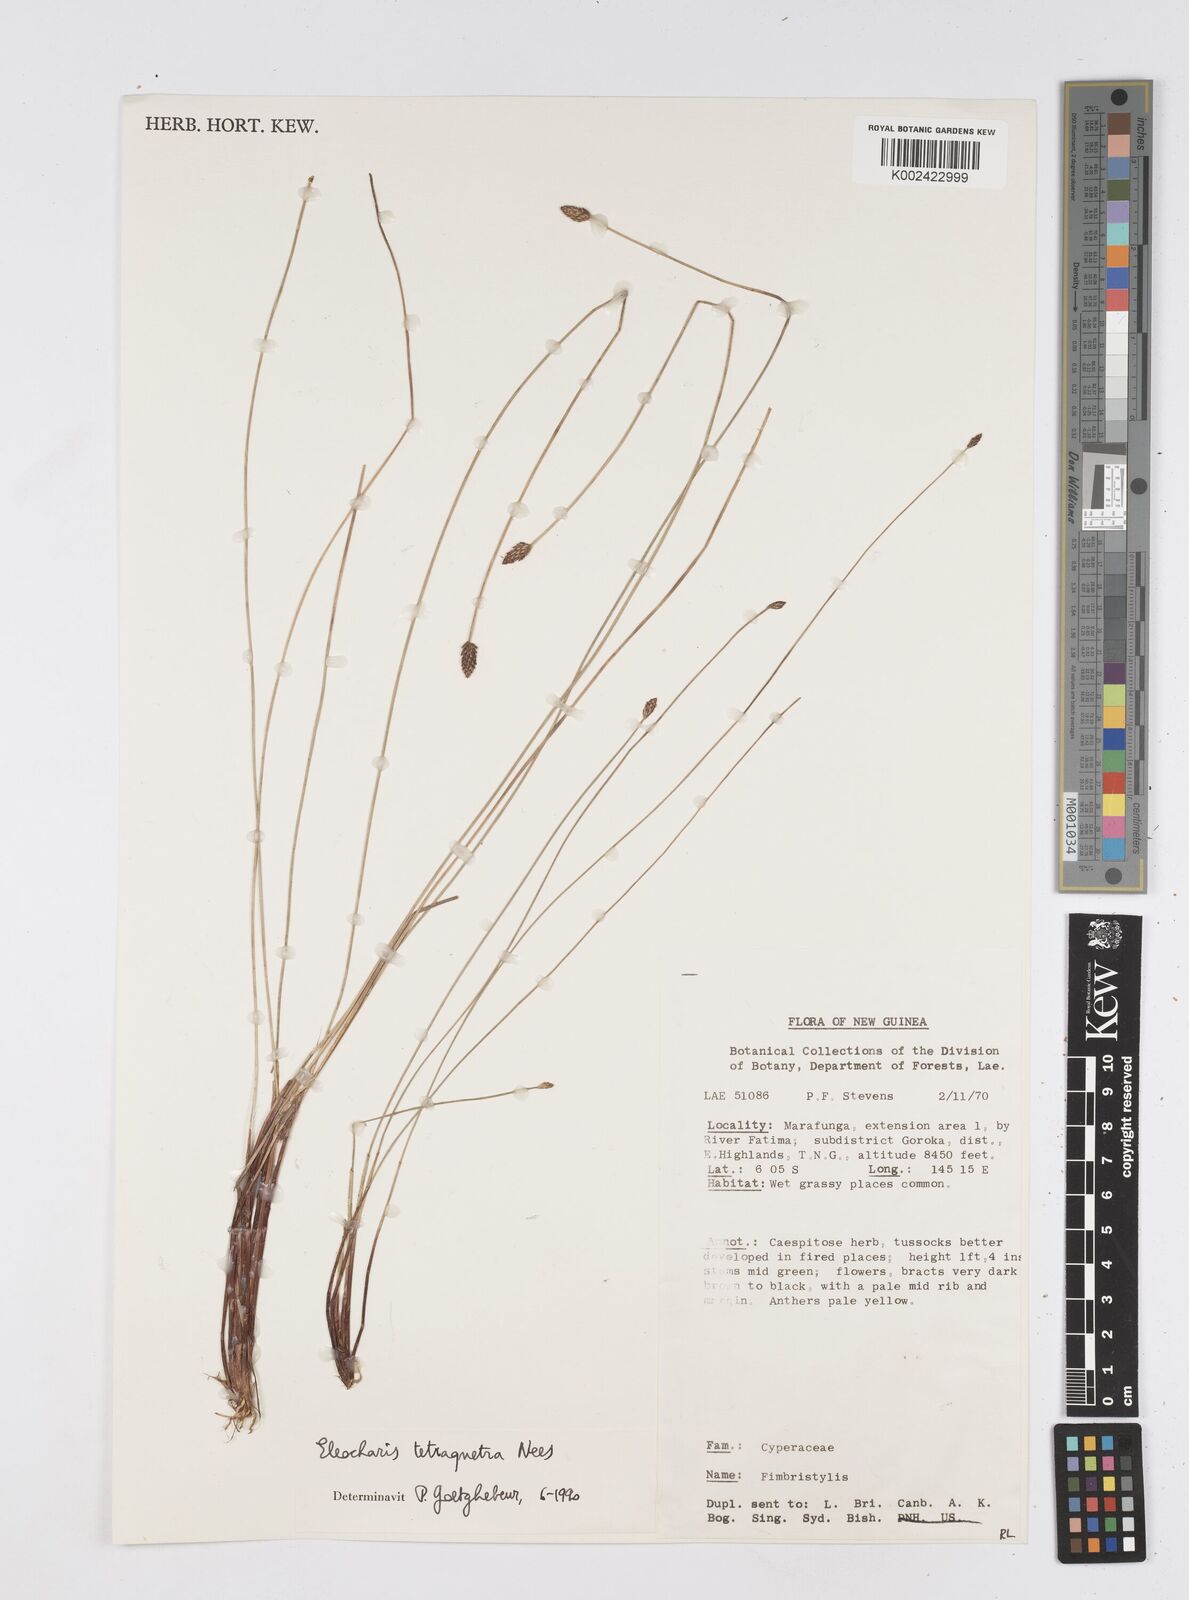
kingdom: Plantae
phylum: Tracheophyta
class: Liliopsida
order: Poales
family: Cyperaceae
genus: Eleocharis
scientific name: Eleocharis tetraquetra
